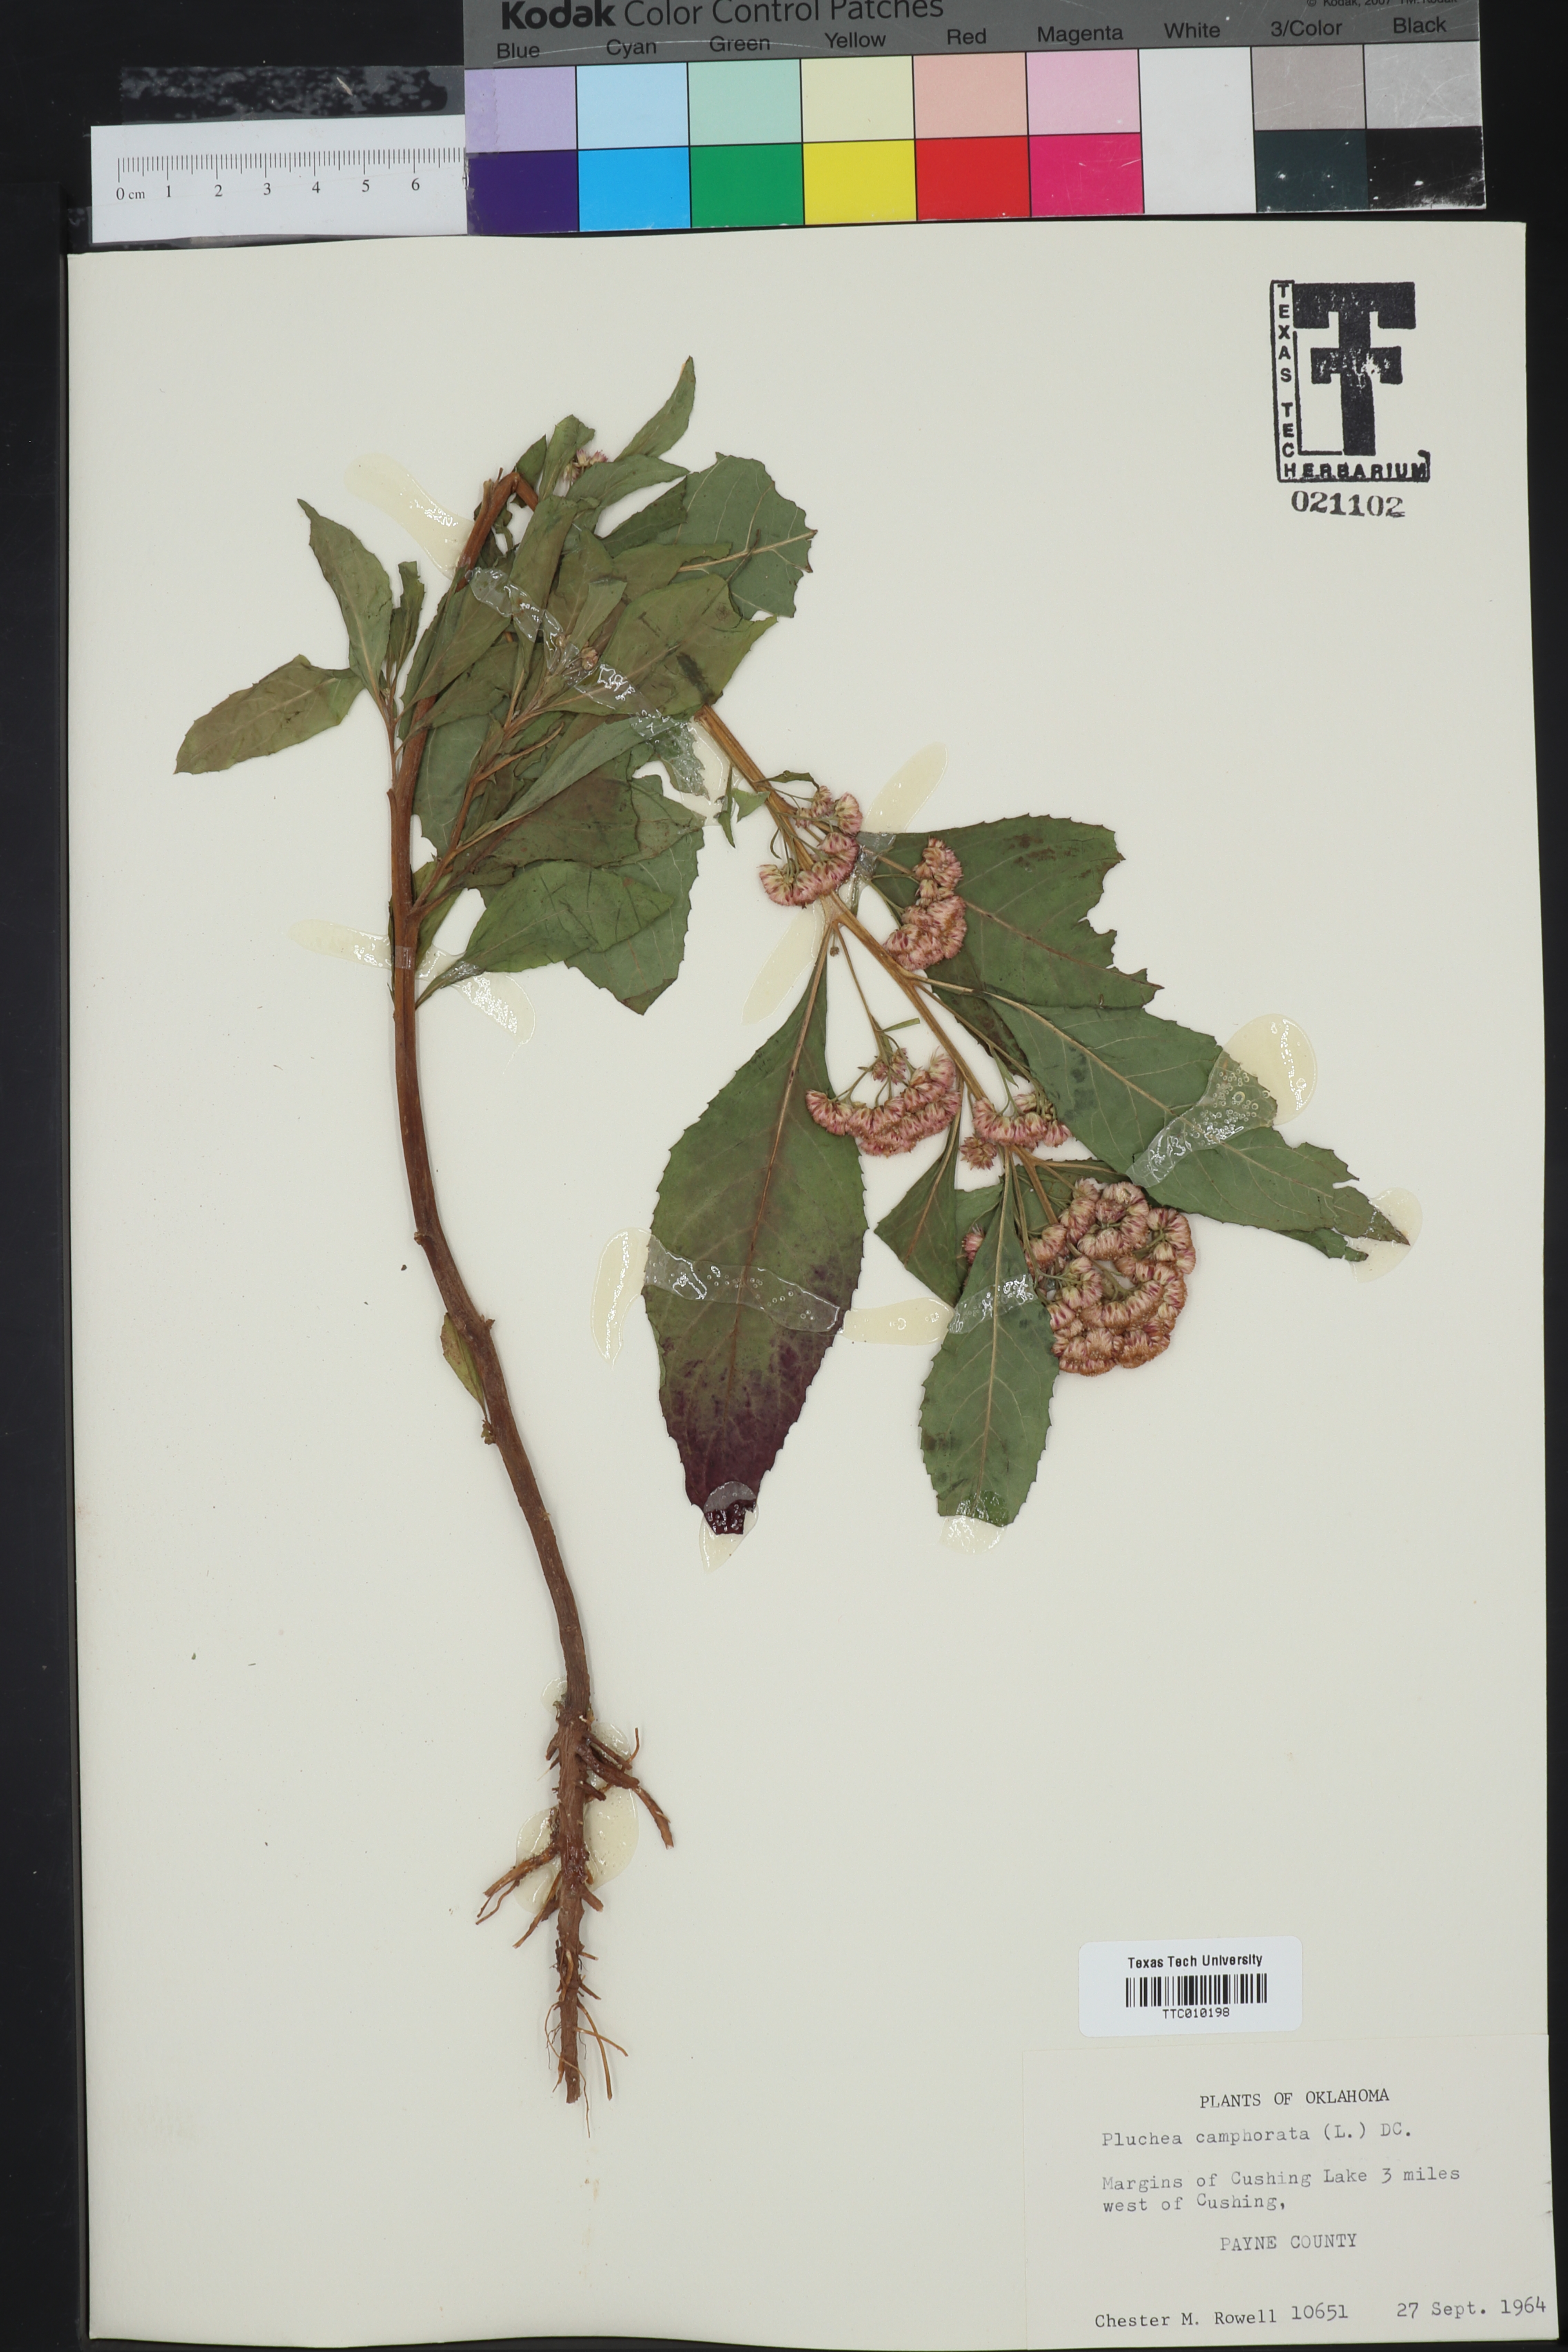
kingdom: Plantae
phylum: Tracheophyta
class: Magnoliopsida
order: Asterales
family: Asteraceae
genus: Pluchea
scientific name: Pluchea camphorata
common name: Camphor pluchea
